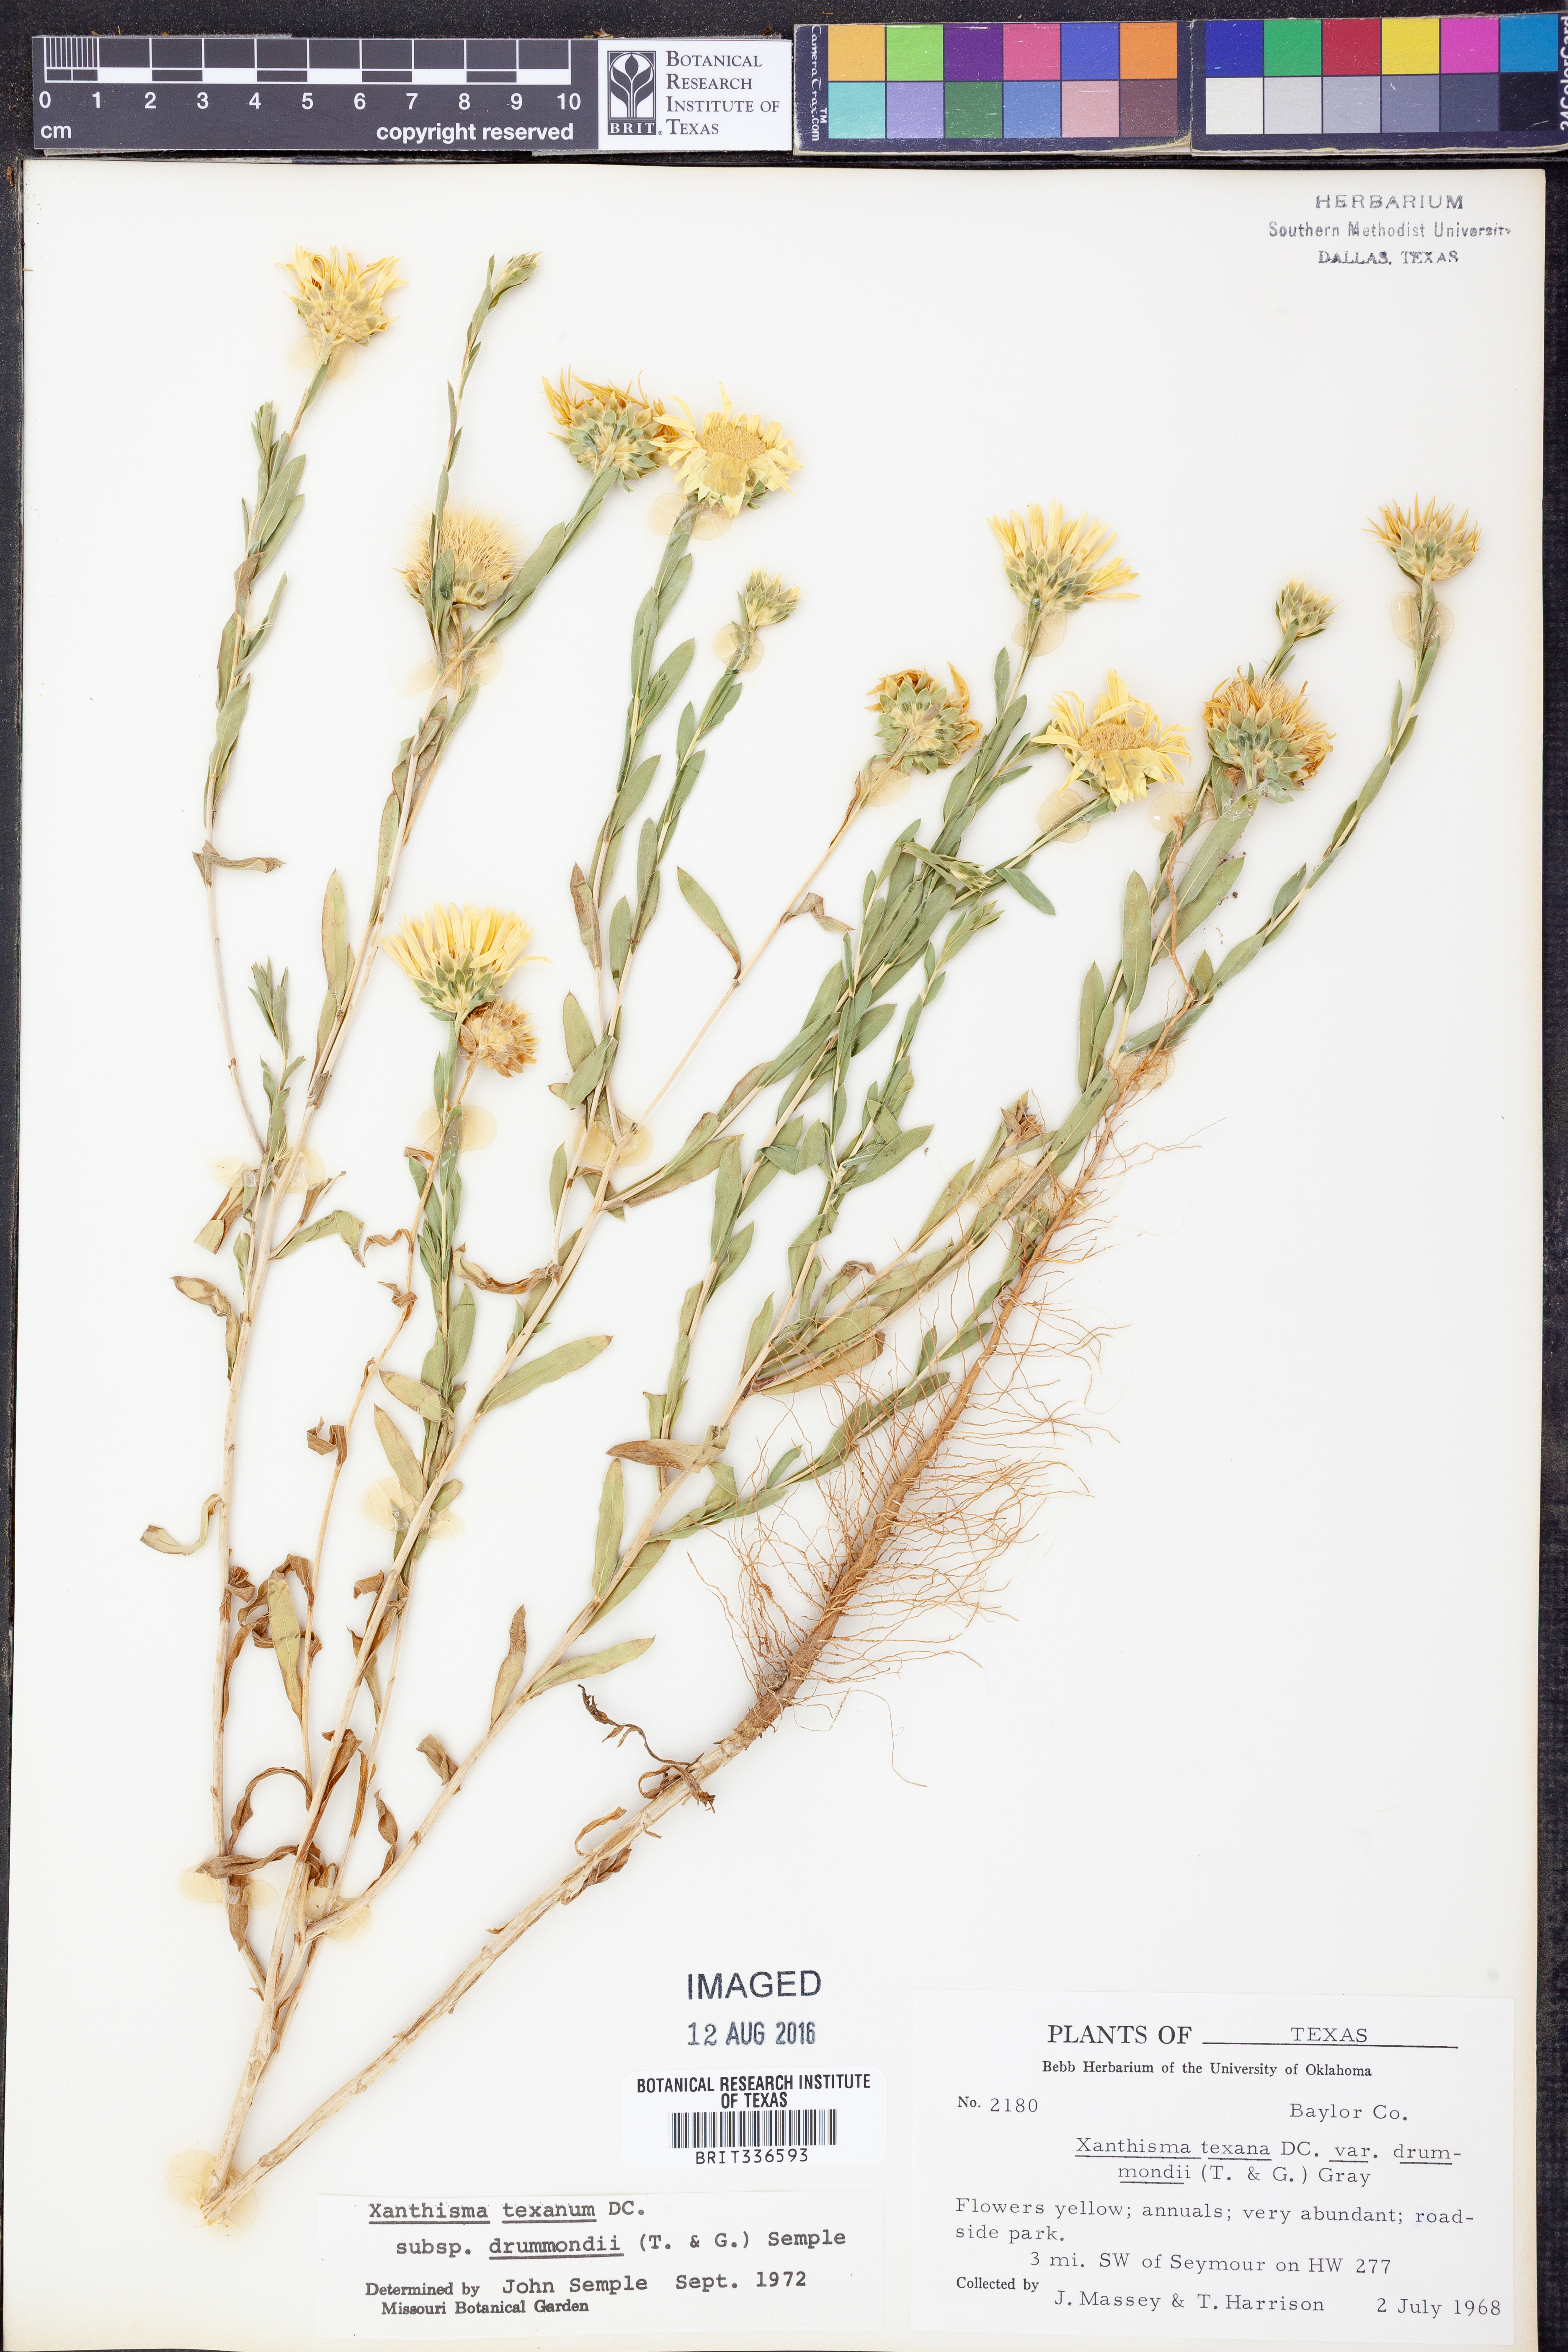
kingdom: Plantae
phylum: Tracheophyta
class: Magnoliopsida
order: Asterales
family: Asteraceae
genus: Xanthisma
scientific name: Xanthisma texanum
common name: Texas sleepy daisy
